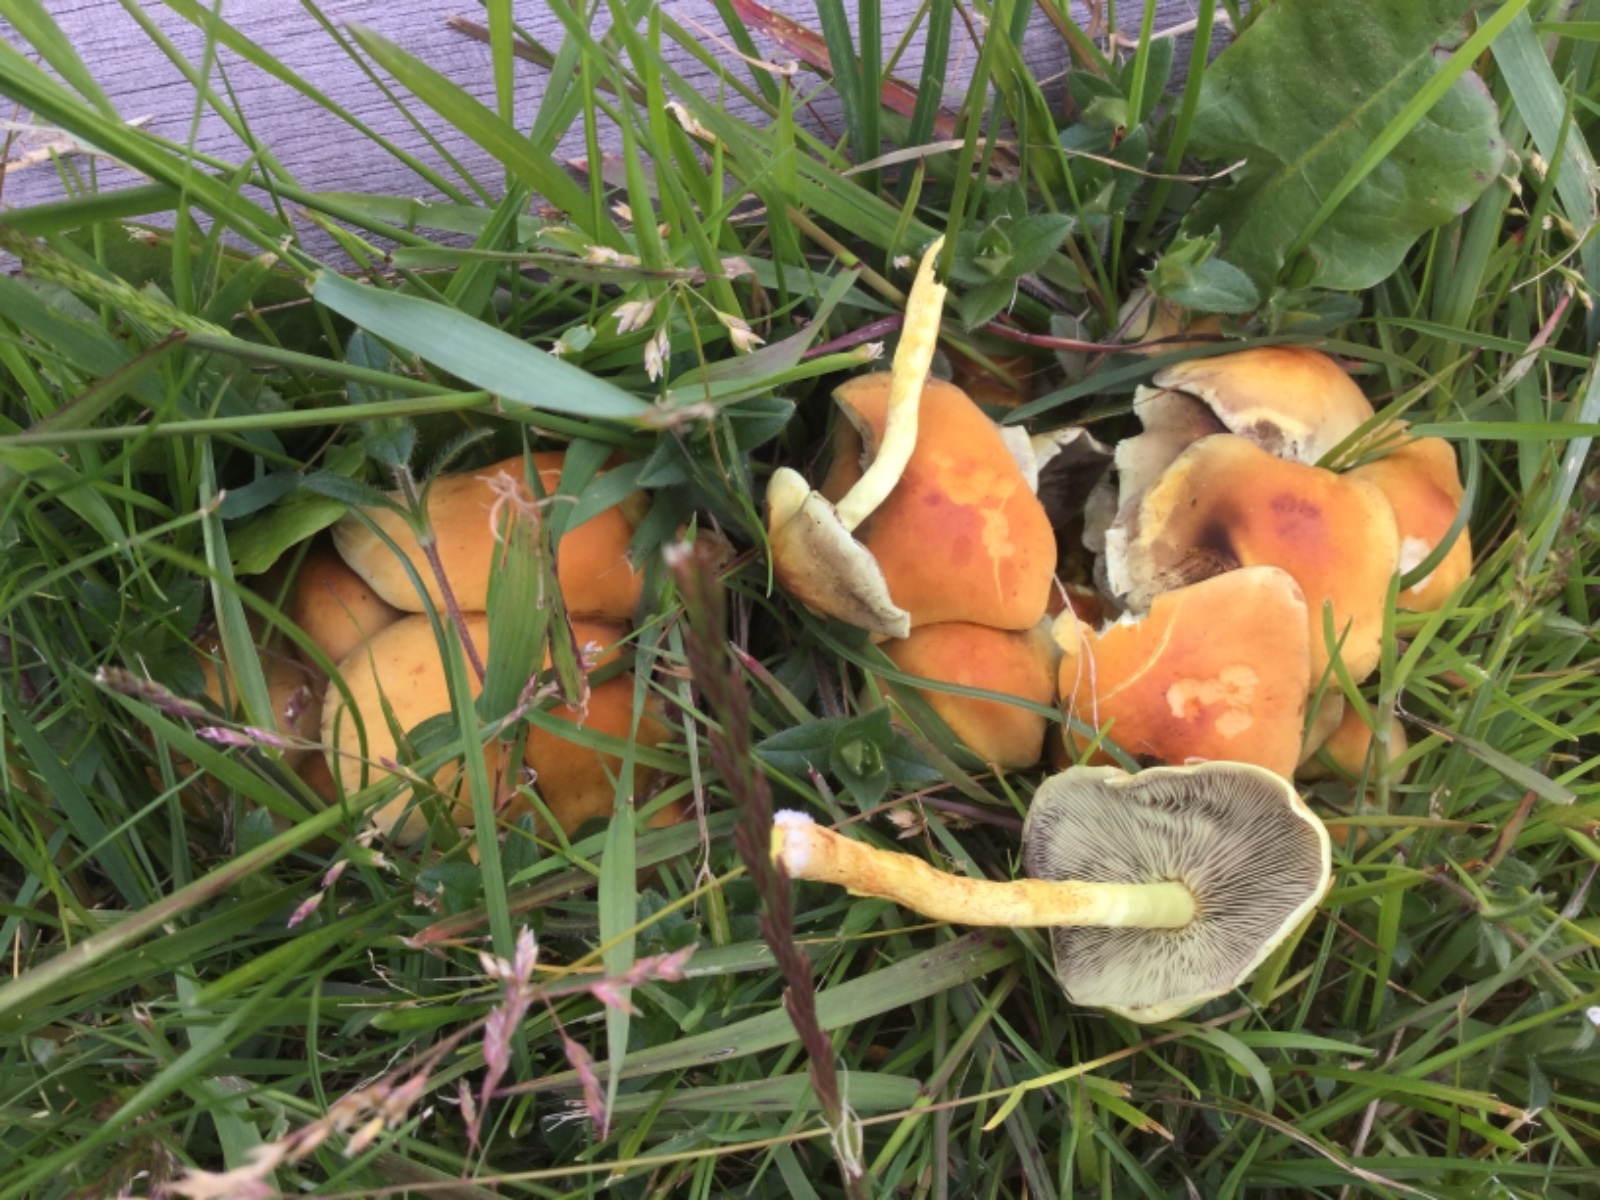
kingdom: Fungi
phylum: Basidiomycota
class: Agaricomycetes
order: Agaricales
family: Strophariaceae
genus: Hypholoma
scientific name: Hypholoma fasciculare
